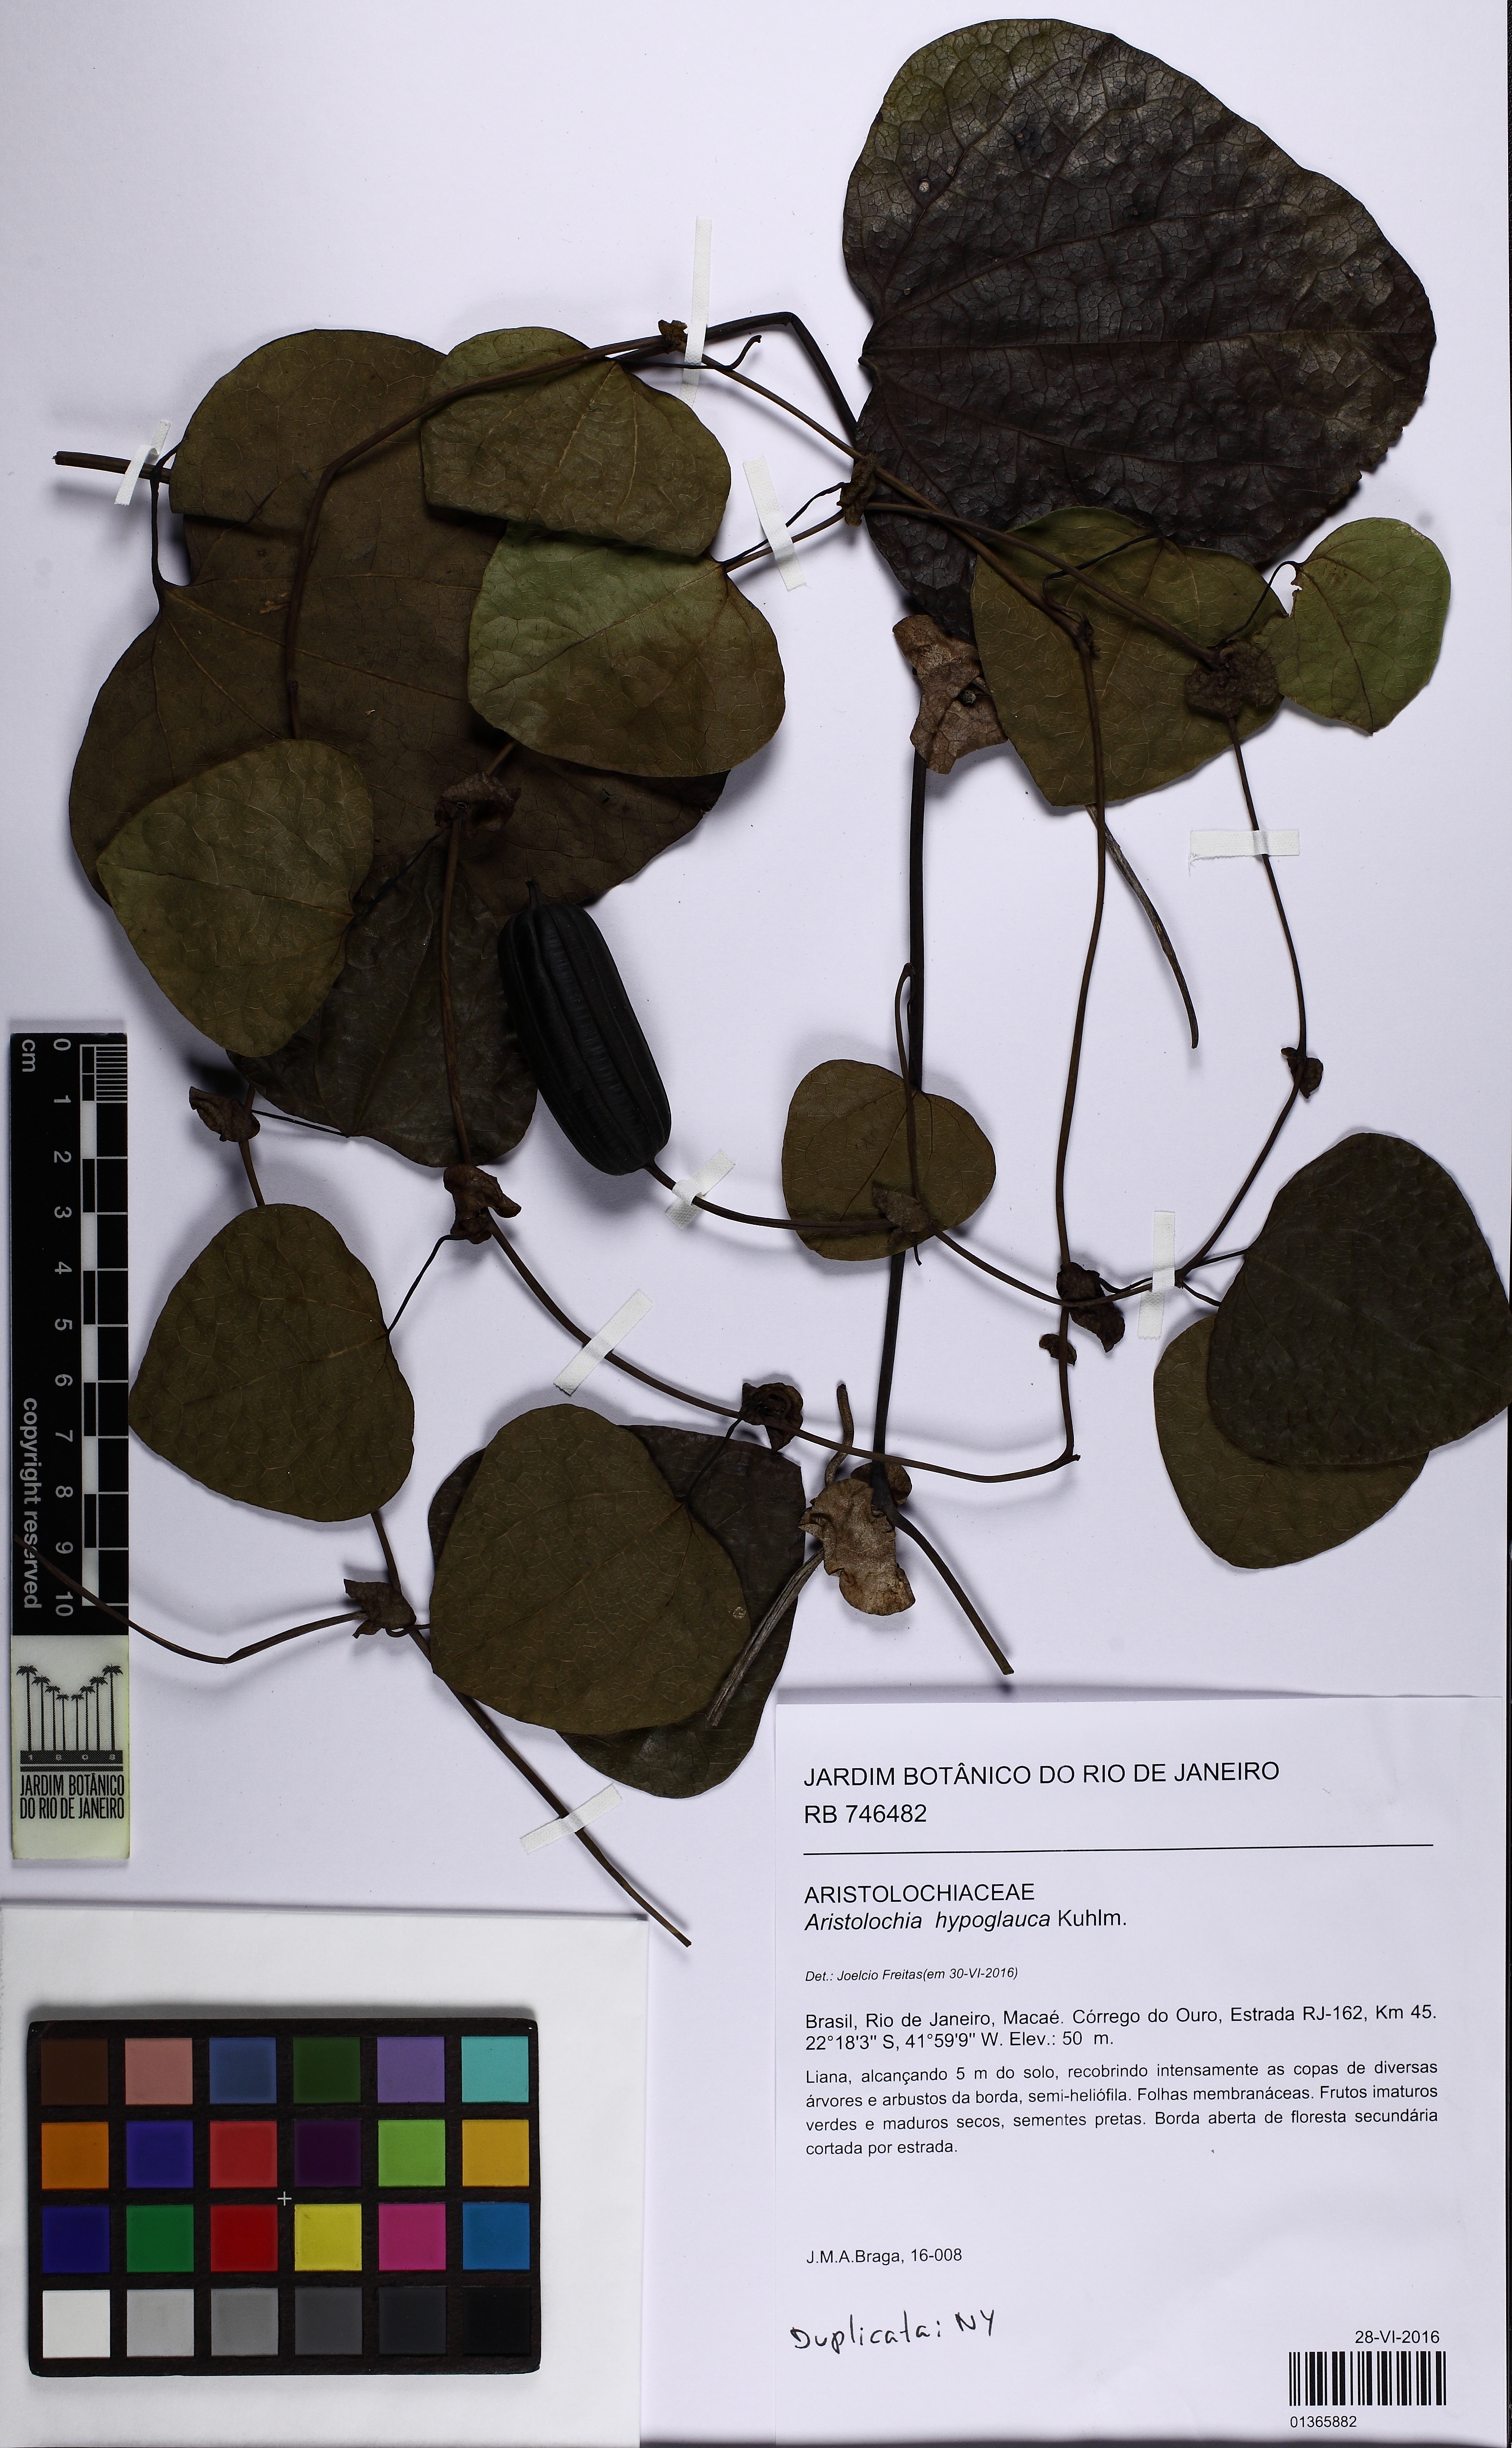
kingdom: Plantae
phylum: Tracheophyta
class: Magnoliopsida
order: Piperales
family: Aristolochiaceae
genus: Aristolochia
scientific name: Aristolochia hypoglauca
